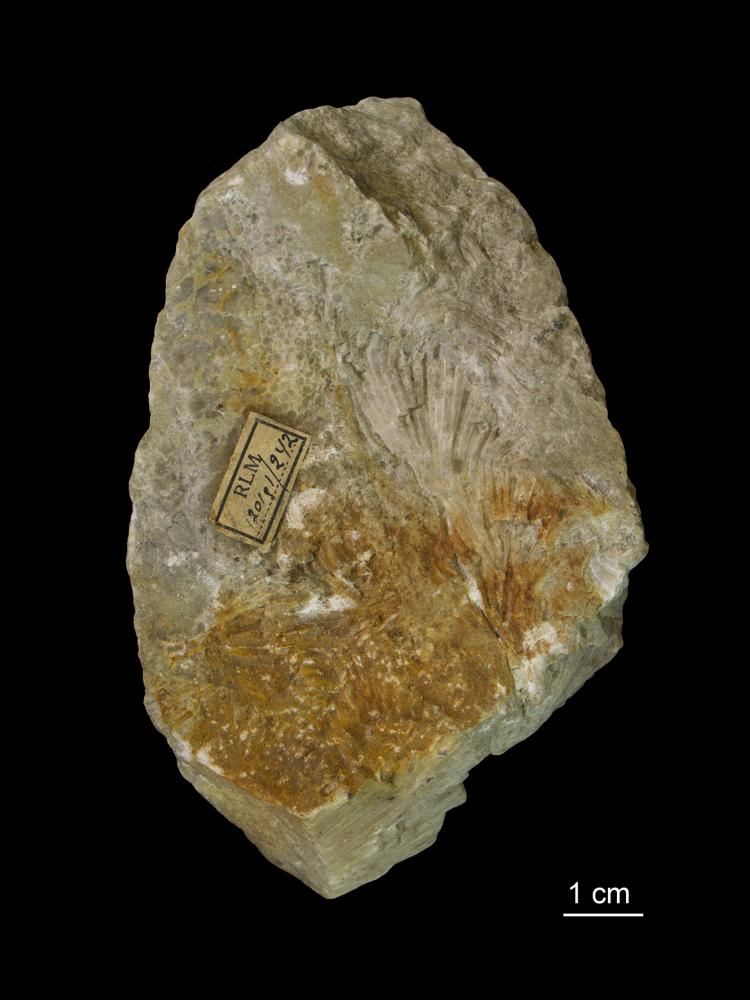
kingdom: Animalia
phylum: Cnidaria
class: Anthozoa
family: Favositidae
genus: Palaeofavosites
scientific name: Palaeofavosites
